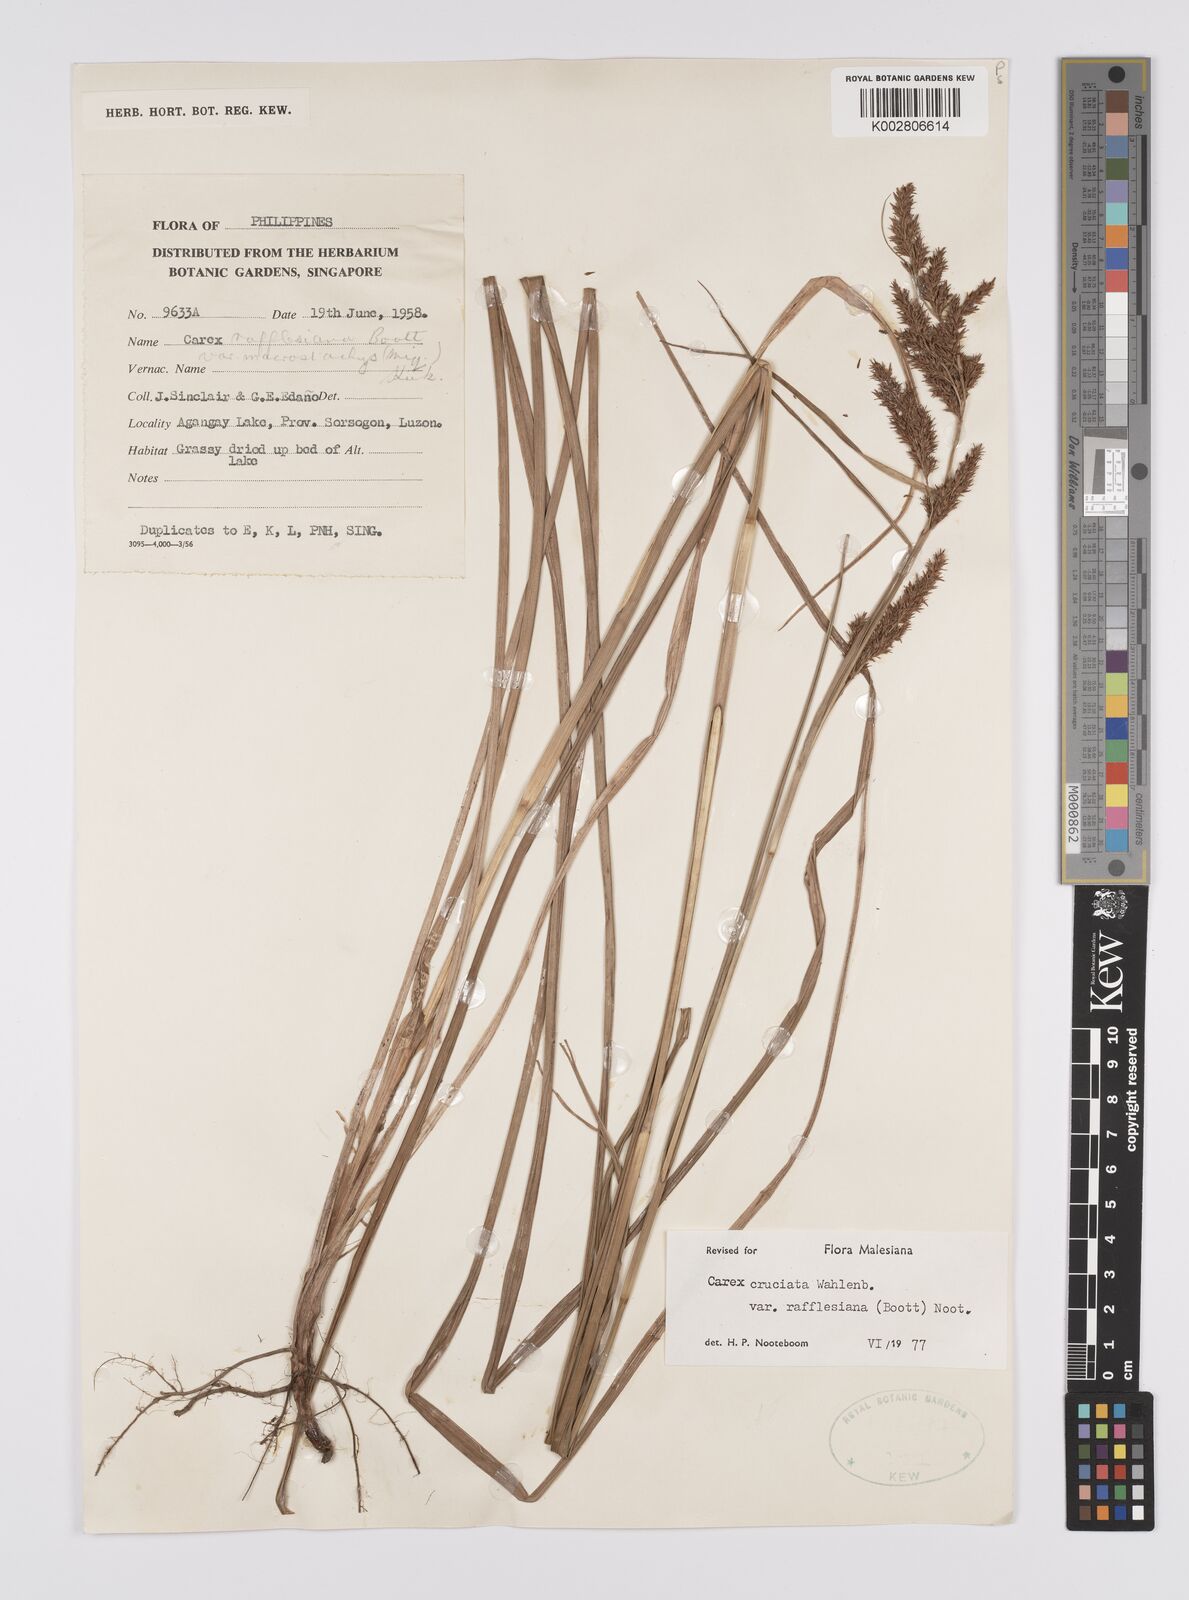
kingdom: Plantae
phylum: Tracheophyta
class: Liliopsida
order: Poales
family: Cyperaceae
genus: Carex
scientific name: Carex rafflesiana
